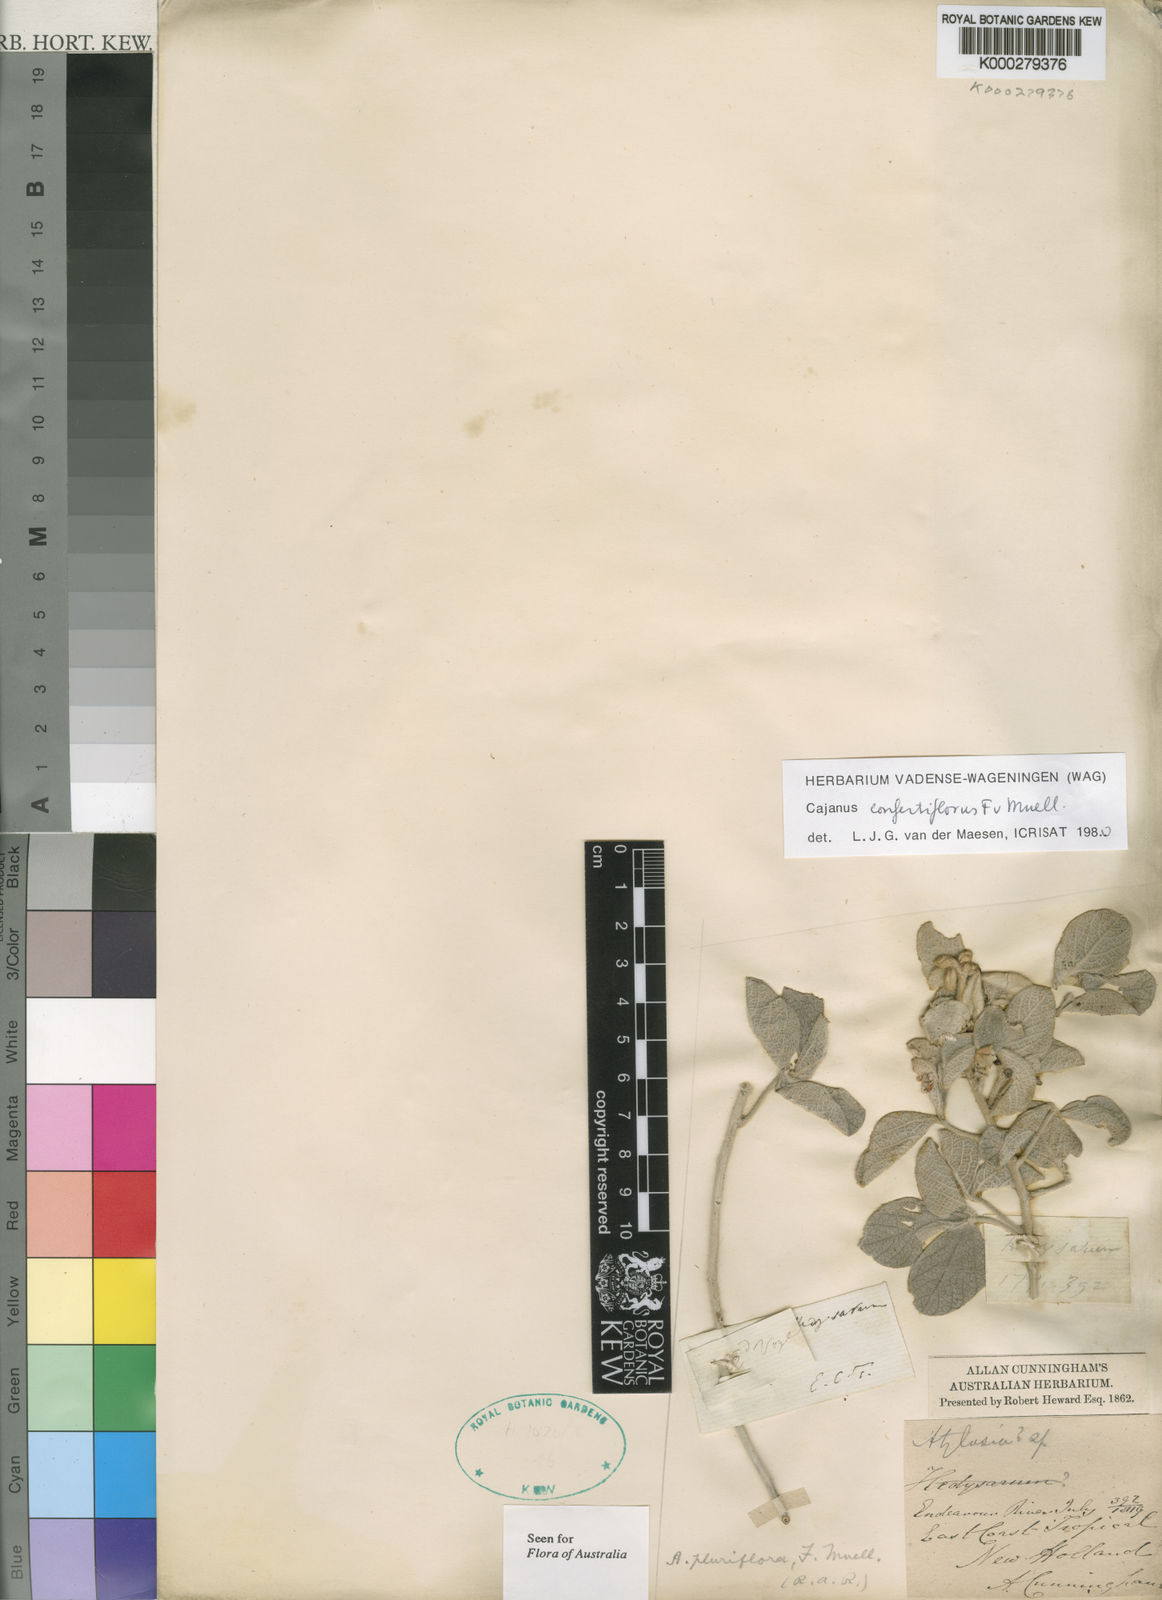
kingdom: Plantae
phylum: Tracheophyta
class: Magnoliopsida
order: Fabales
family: Fabaceae
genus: Cajanus
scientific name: Cajanus confertiflorus
